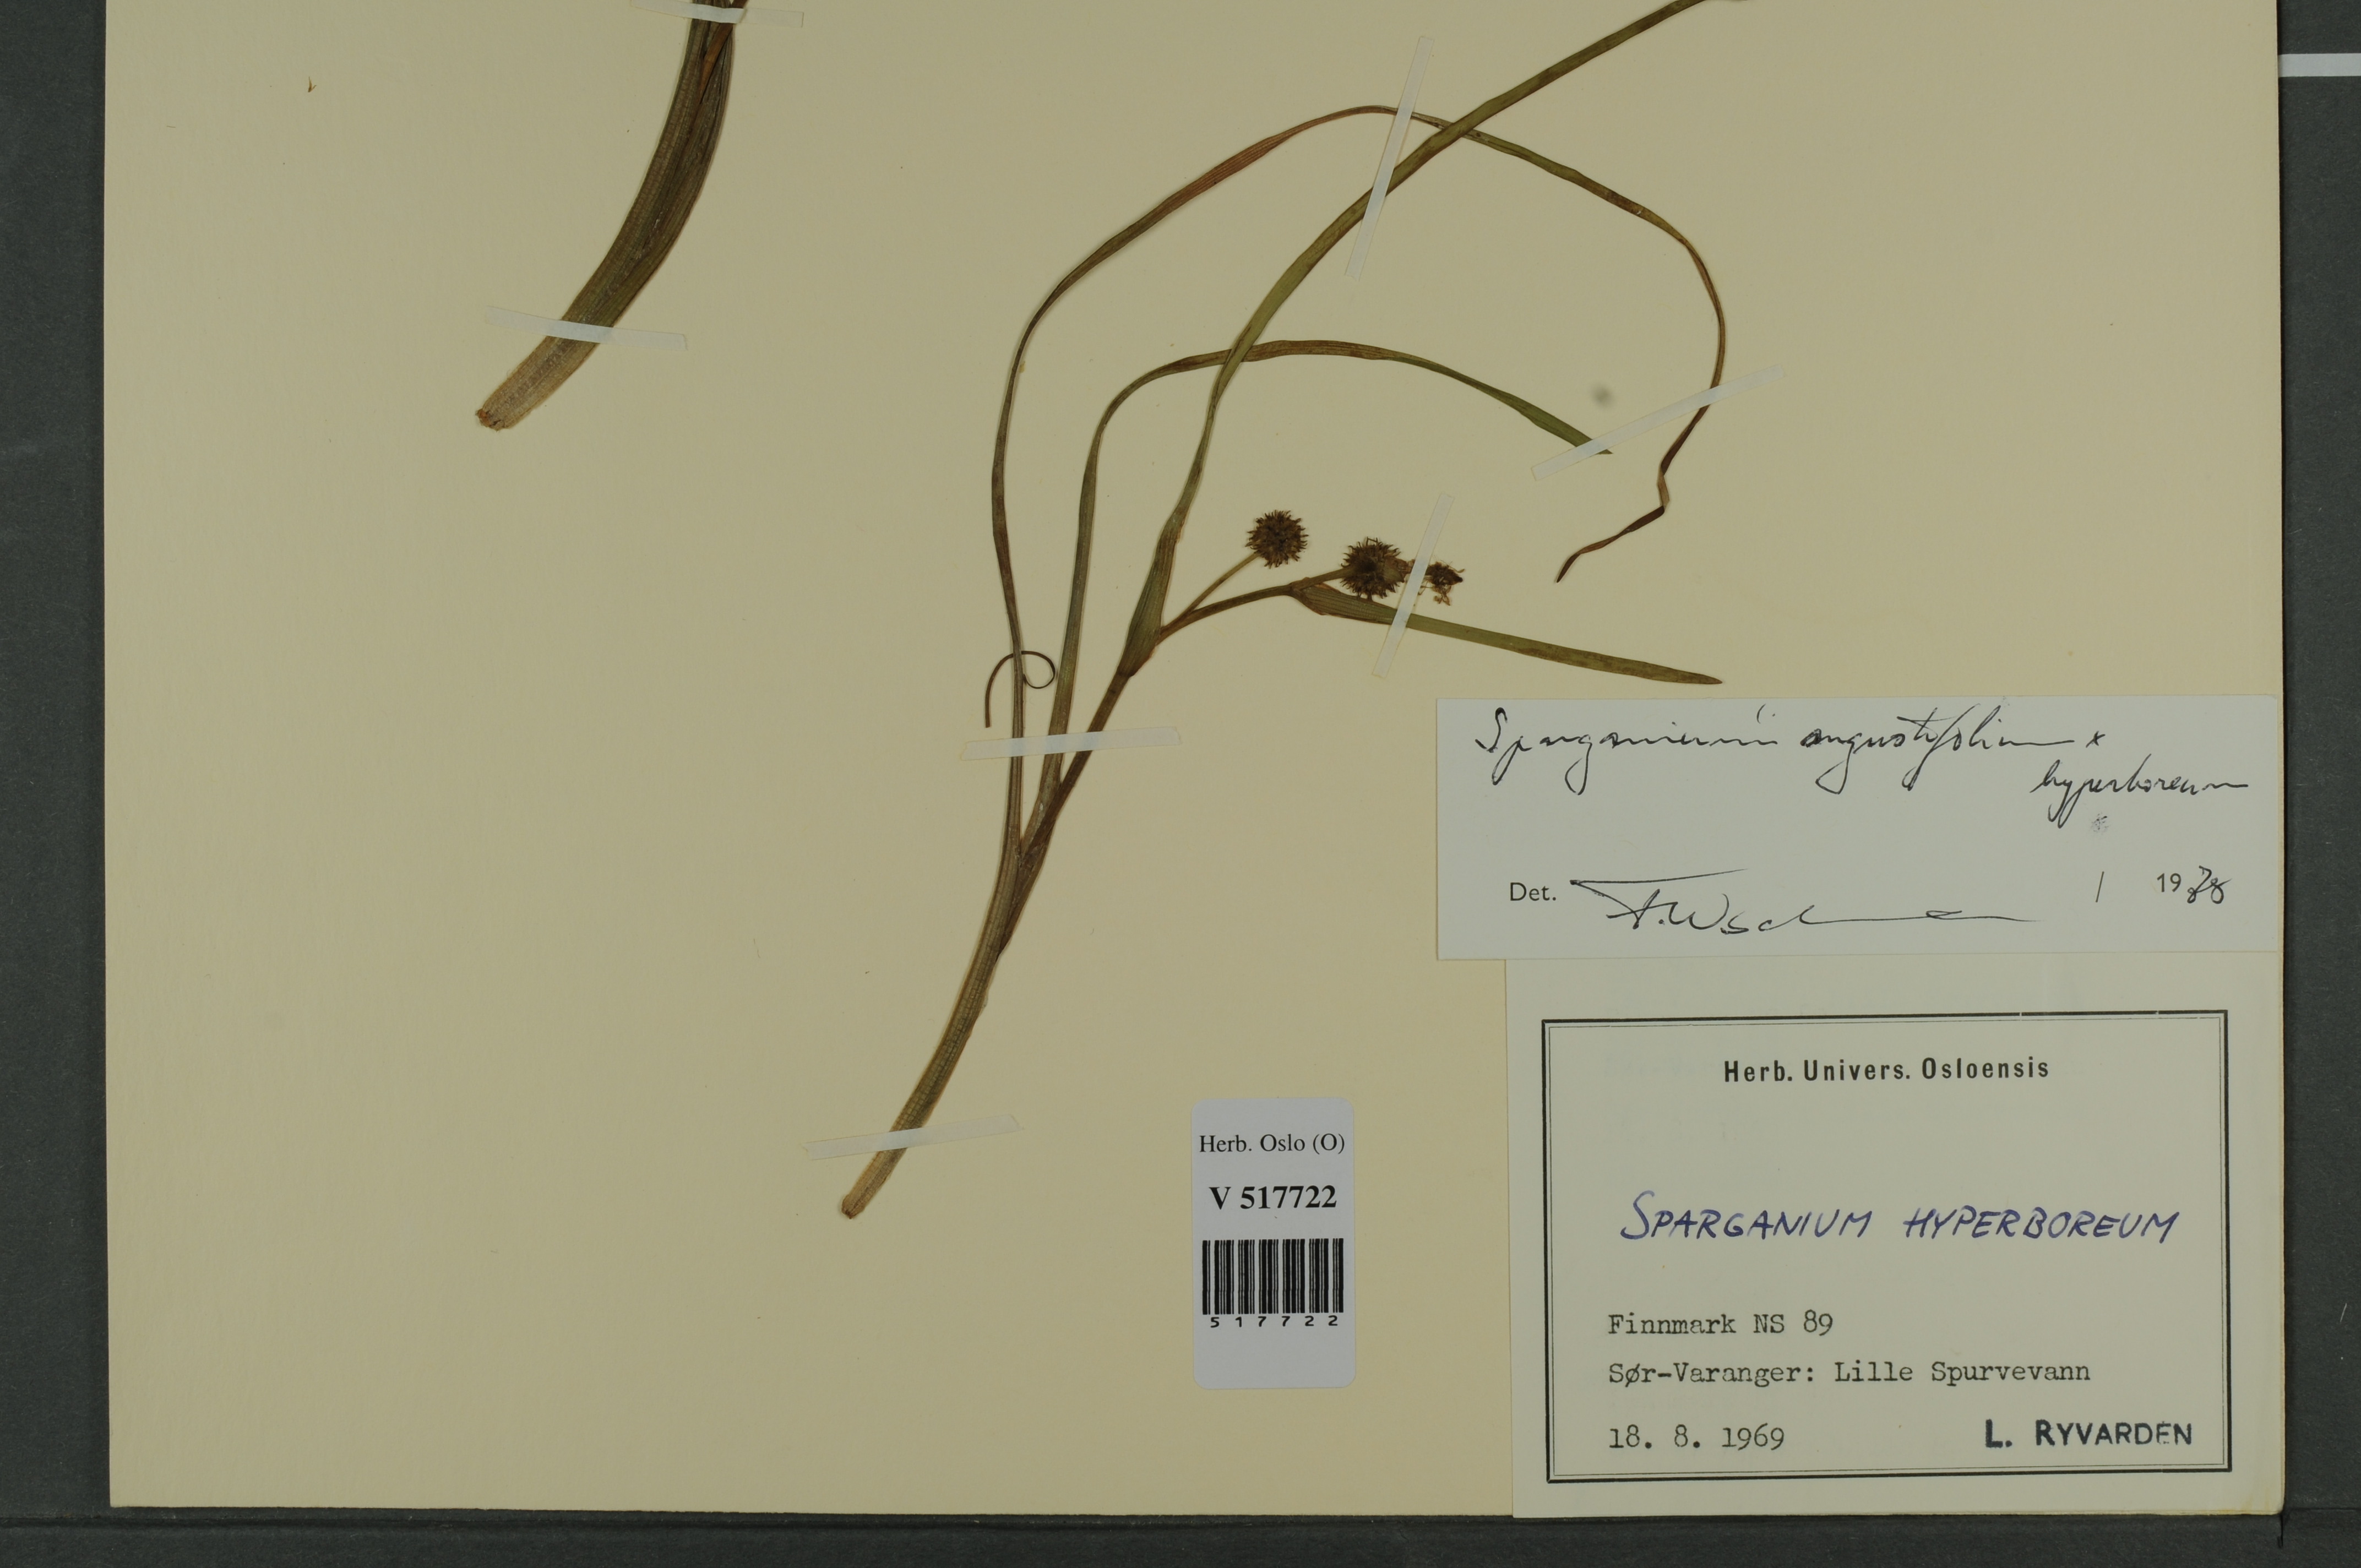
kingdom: Plantae
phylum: Tracheophyta
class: Liliopsida
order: Poales
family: Typhaceae
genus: Sparganium
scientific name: Sparganium
